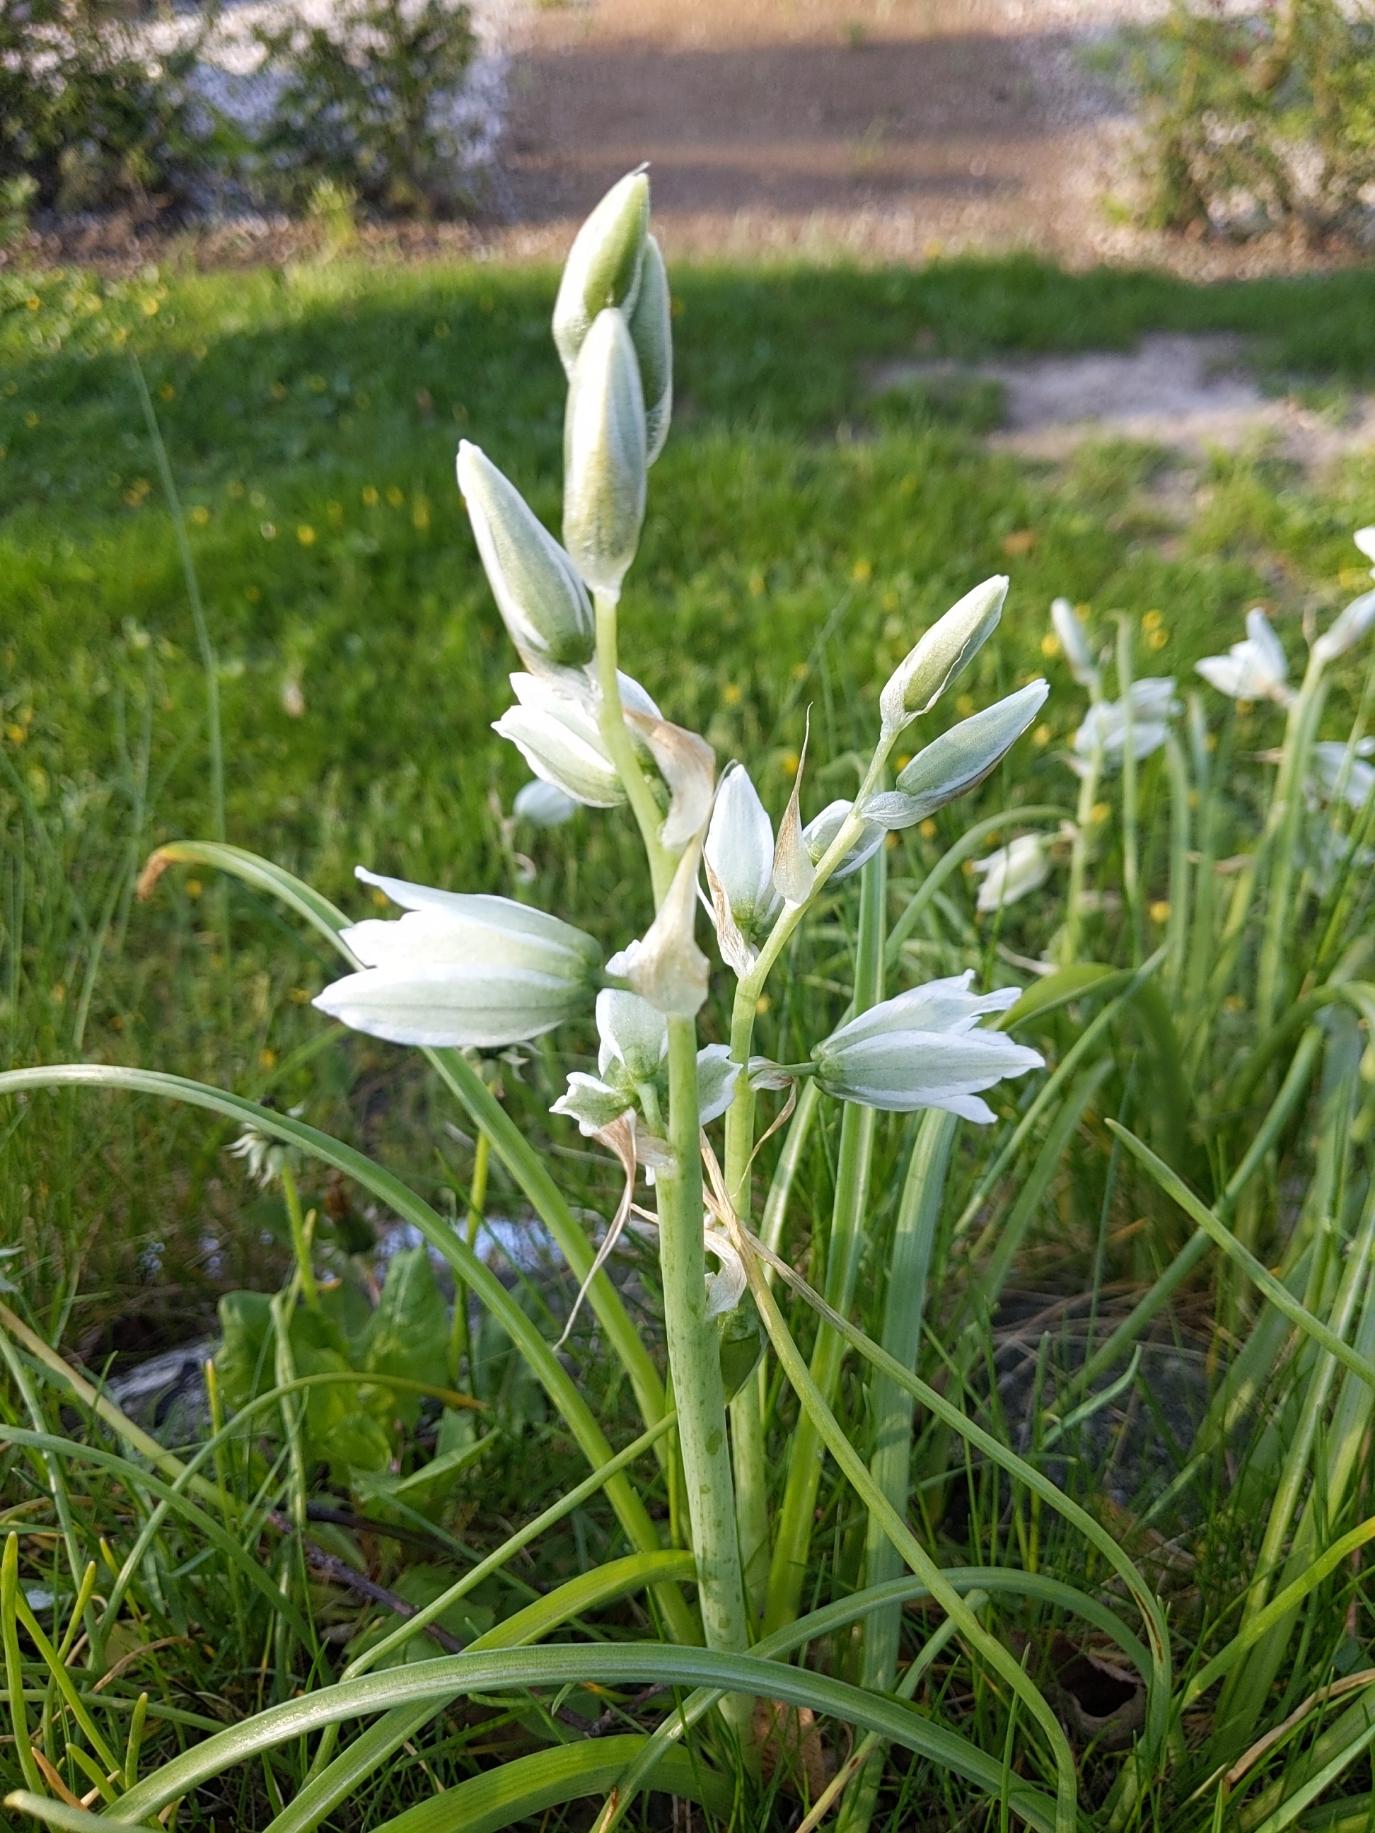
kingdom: Plantae
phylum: Tracheophyta
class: Liliopsida
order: Asparagales
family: Asparagaceae
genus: Ornithogalum
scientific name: Ornithogalum nutans
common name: Nikkende fuglemælk
